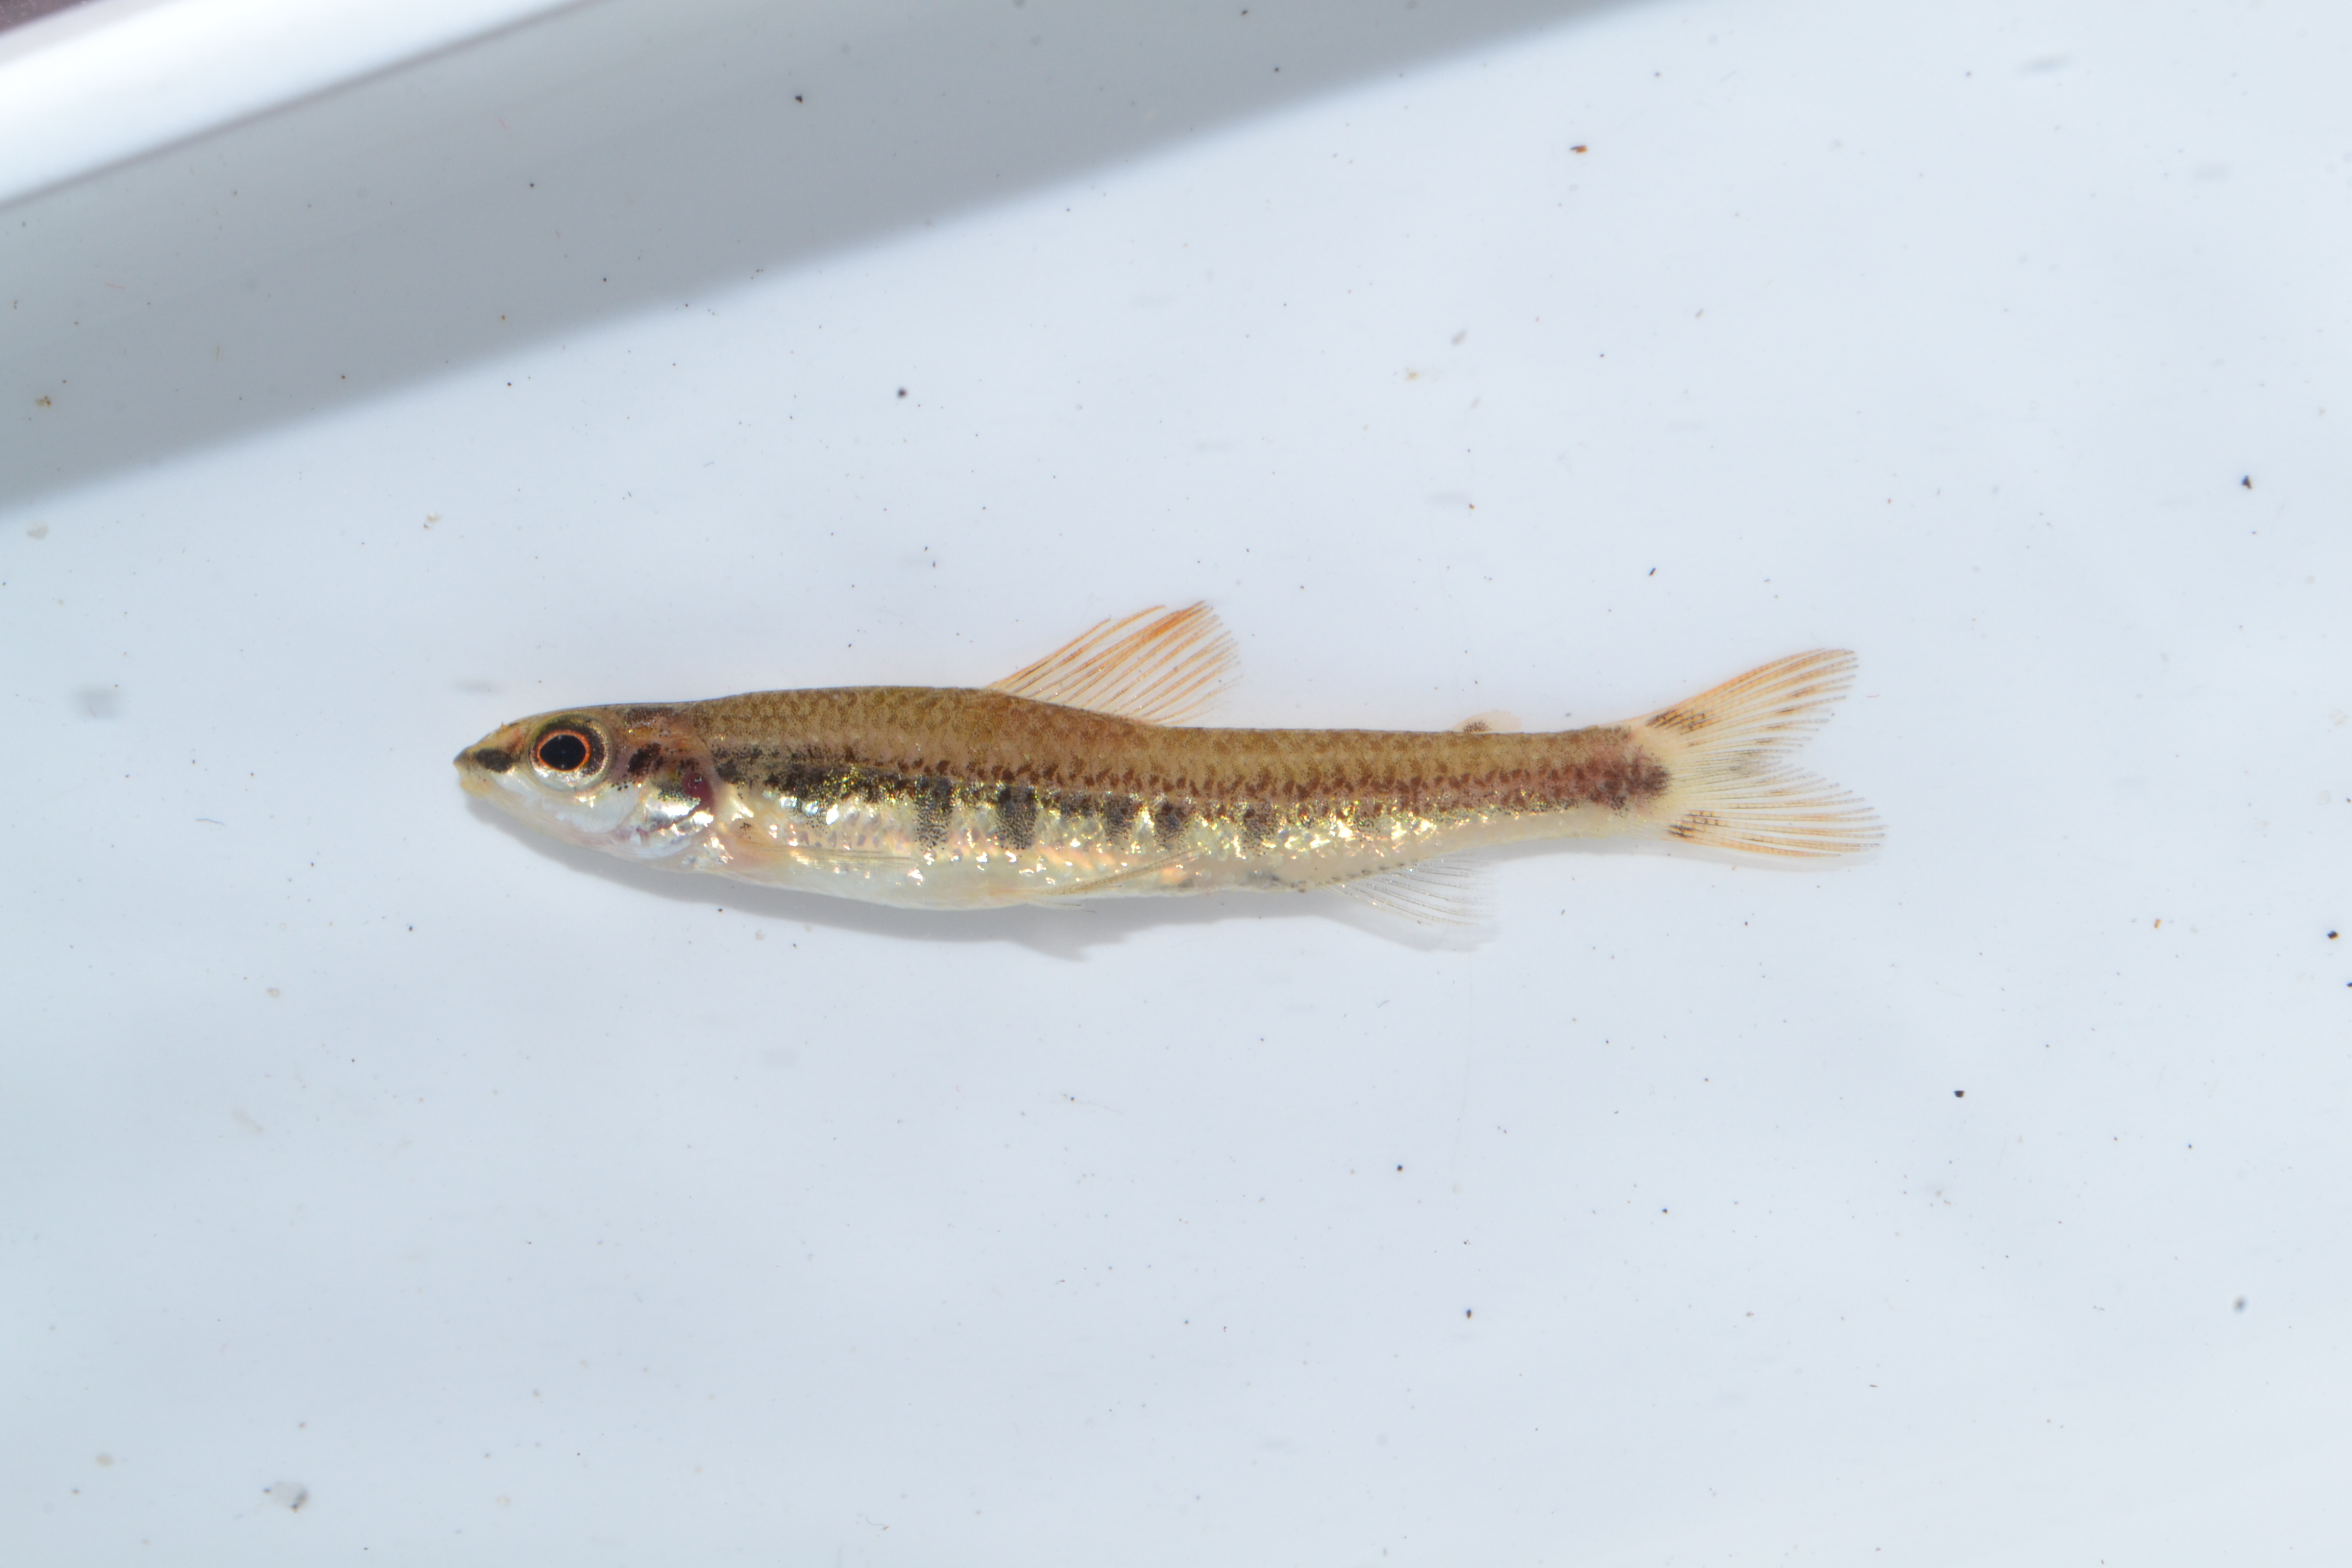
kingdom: Animalia
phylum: Chordata
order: Characiformes
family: Distichodontidae
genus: Nannocharax
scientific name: Nannocharax lineostriatus
